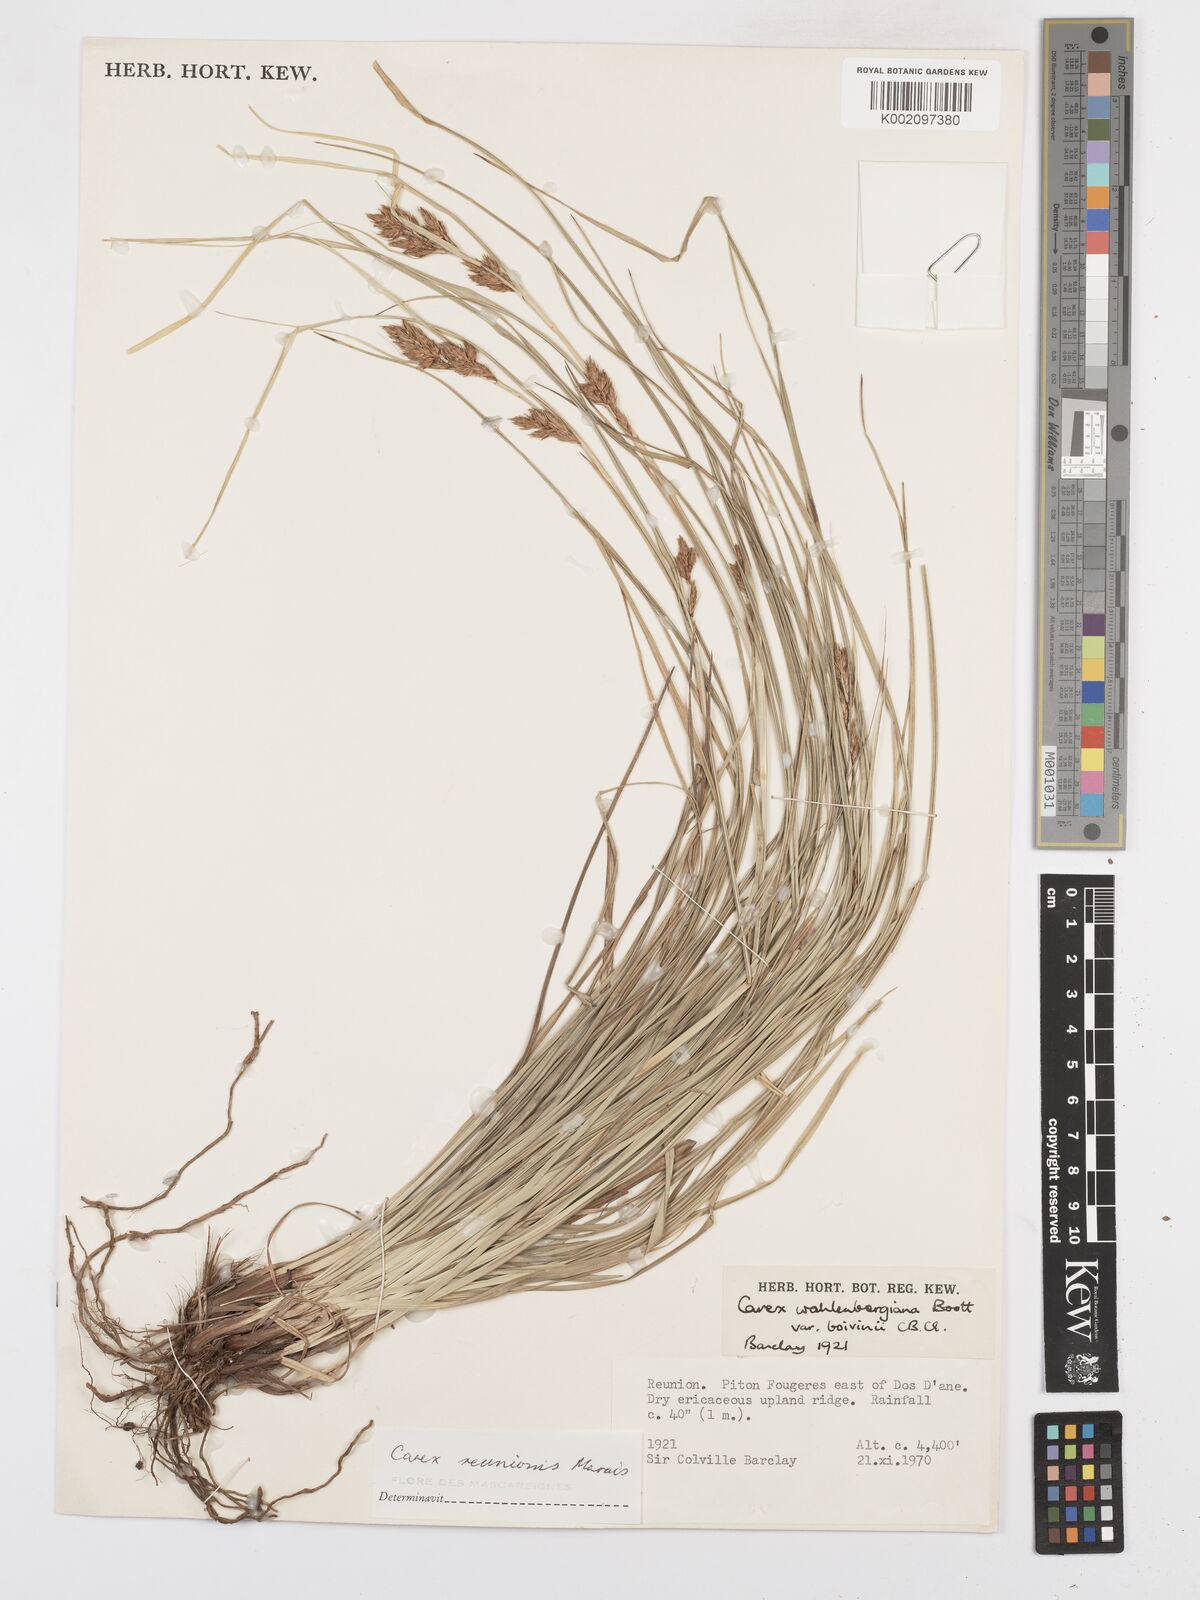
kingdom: Plantae
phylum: Tracheophyta
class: Liliopsida
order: Poales
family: Cyperaceae
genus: Carex
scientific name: Carex
